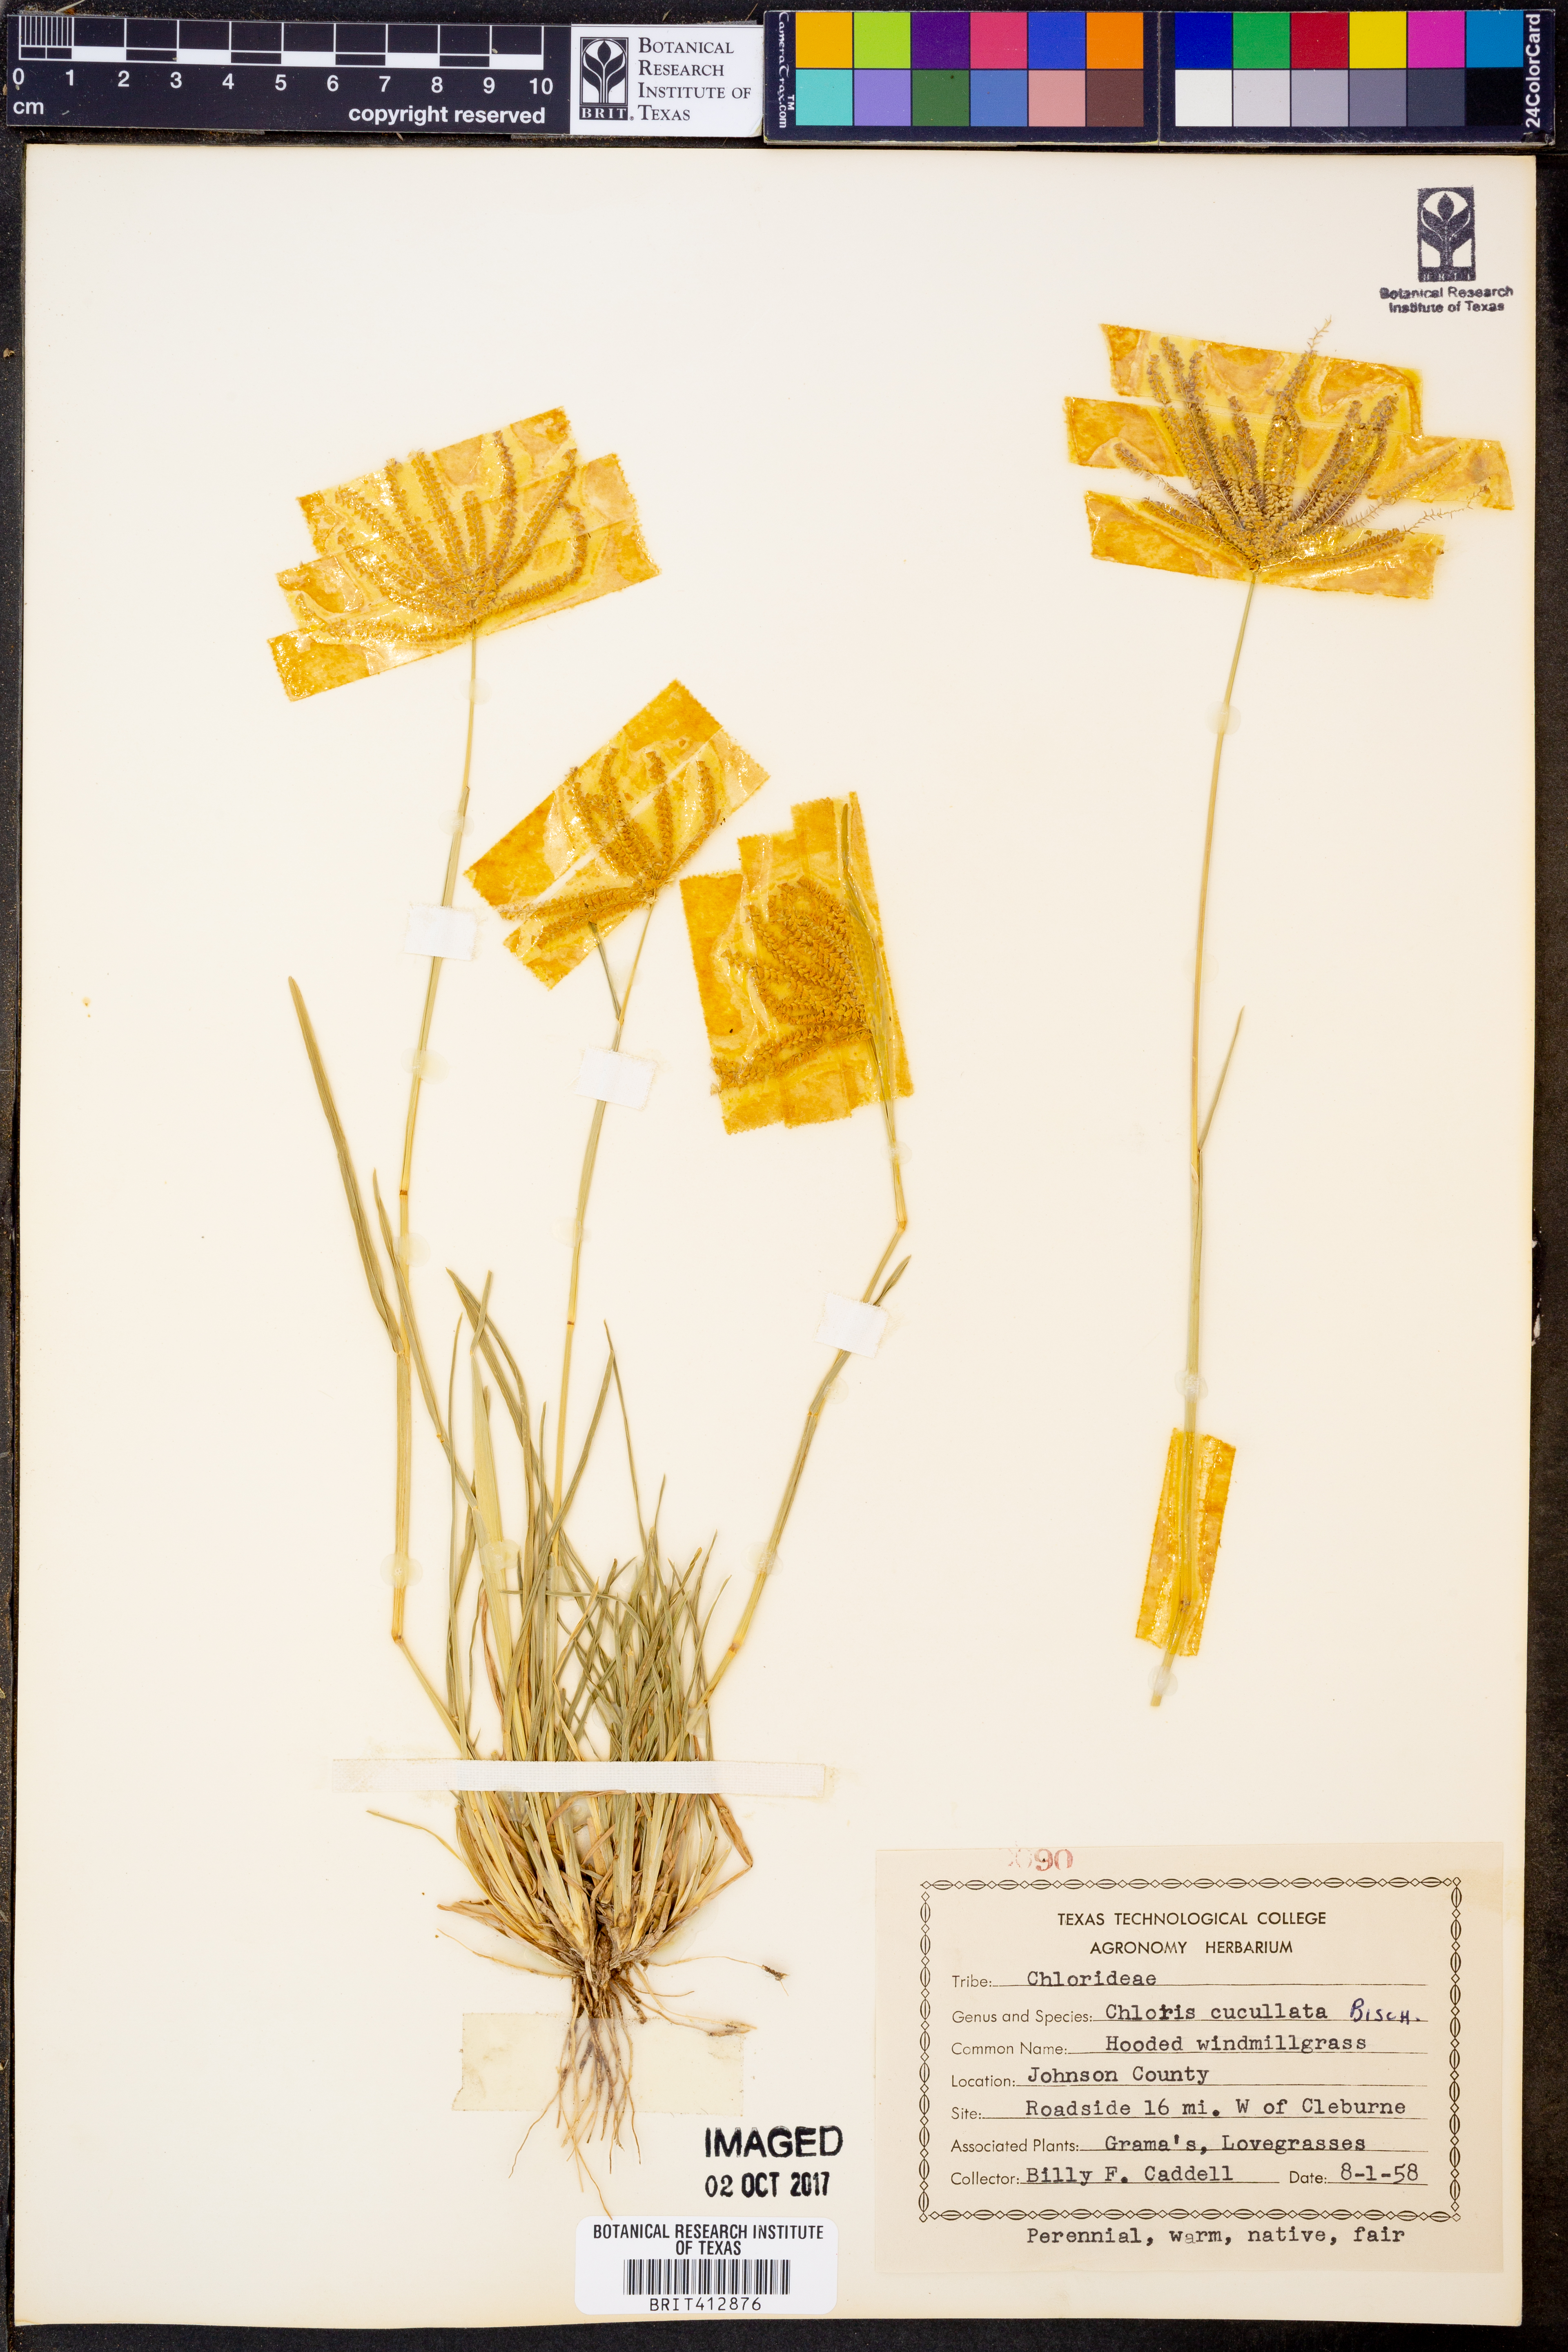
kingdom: Plantae
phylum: Tracheophyta
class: Liliopsida
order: Poales
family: Poaceae
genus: Chloris
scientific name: Chloris cucullata
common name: Hooded windmill grass
